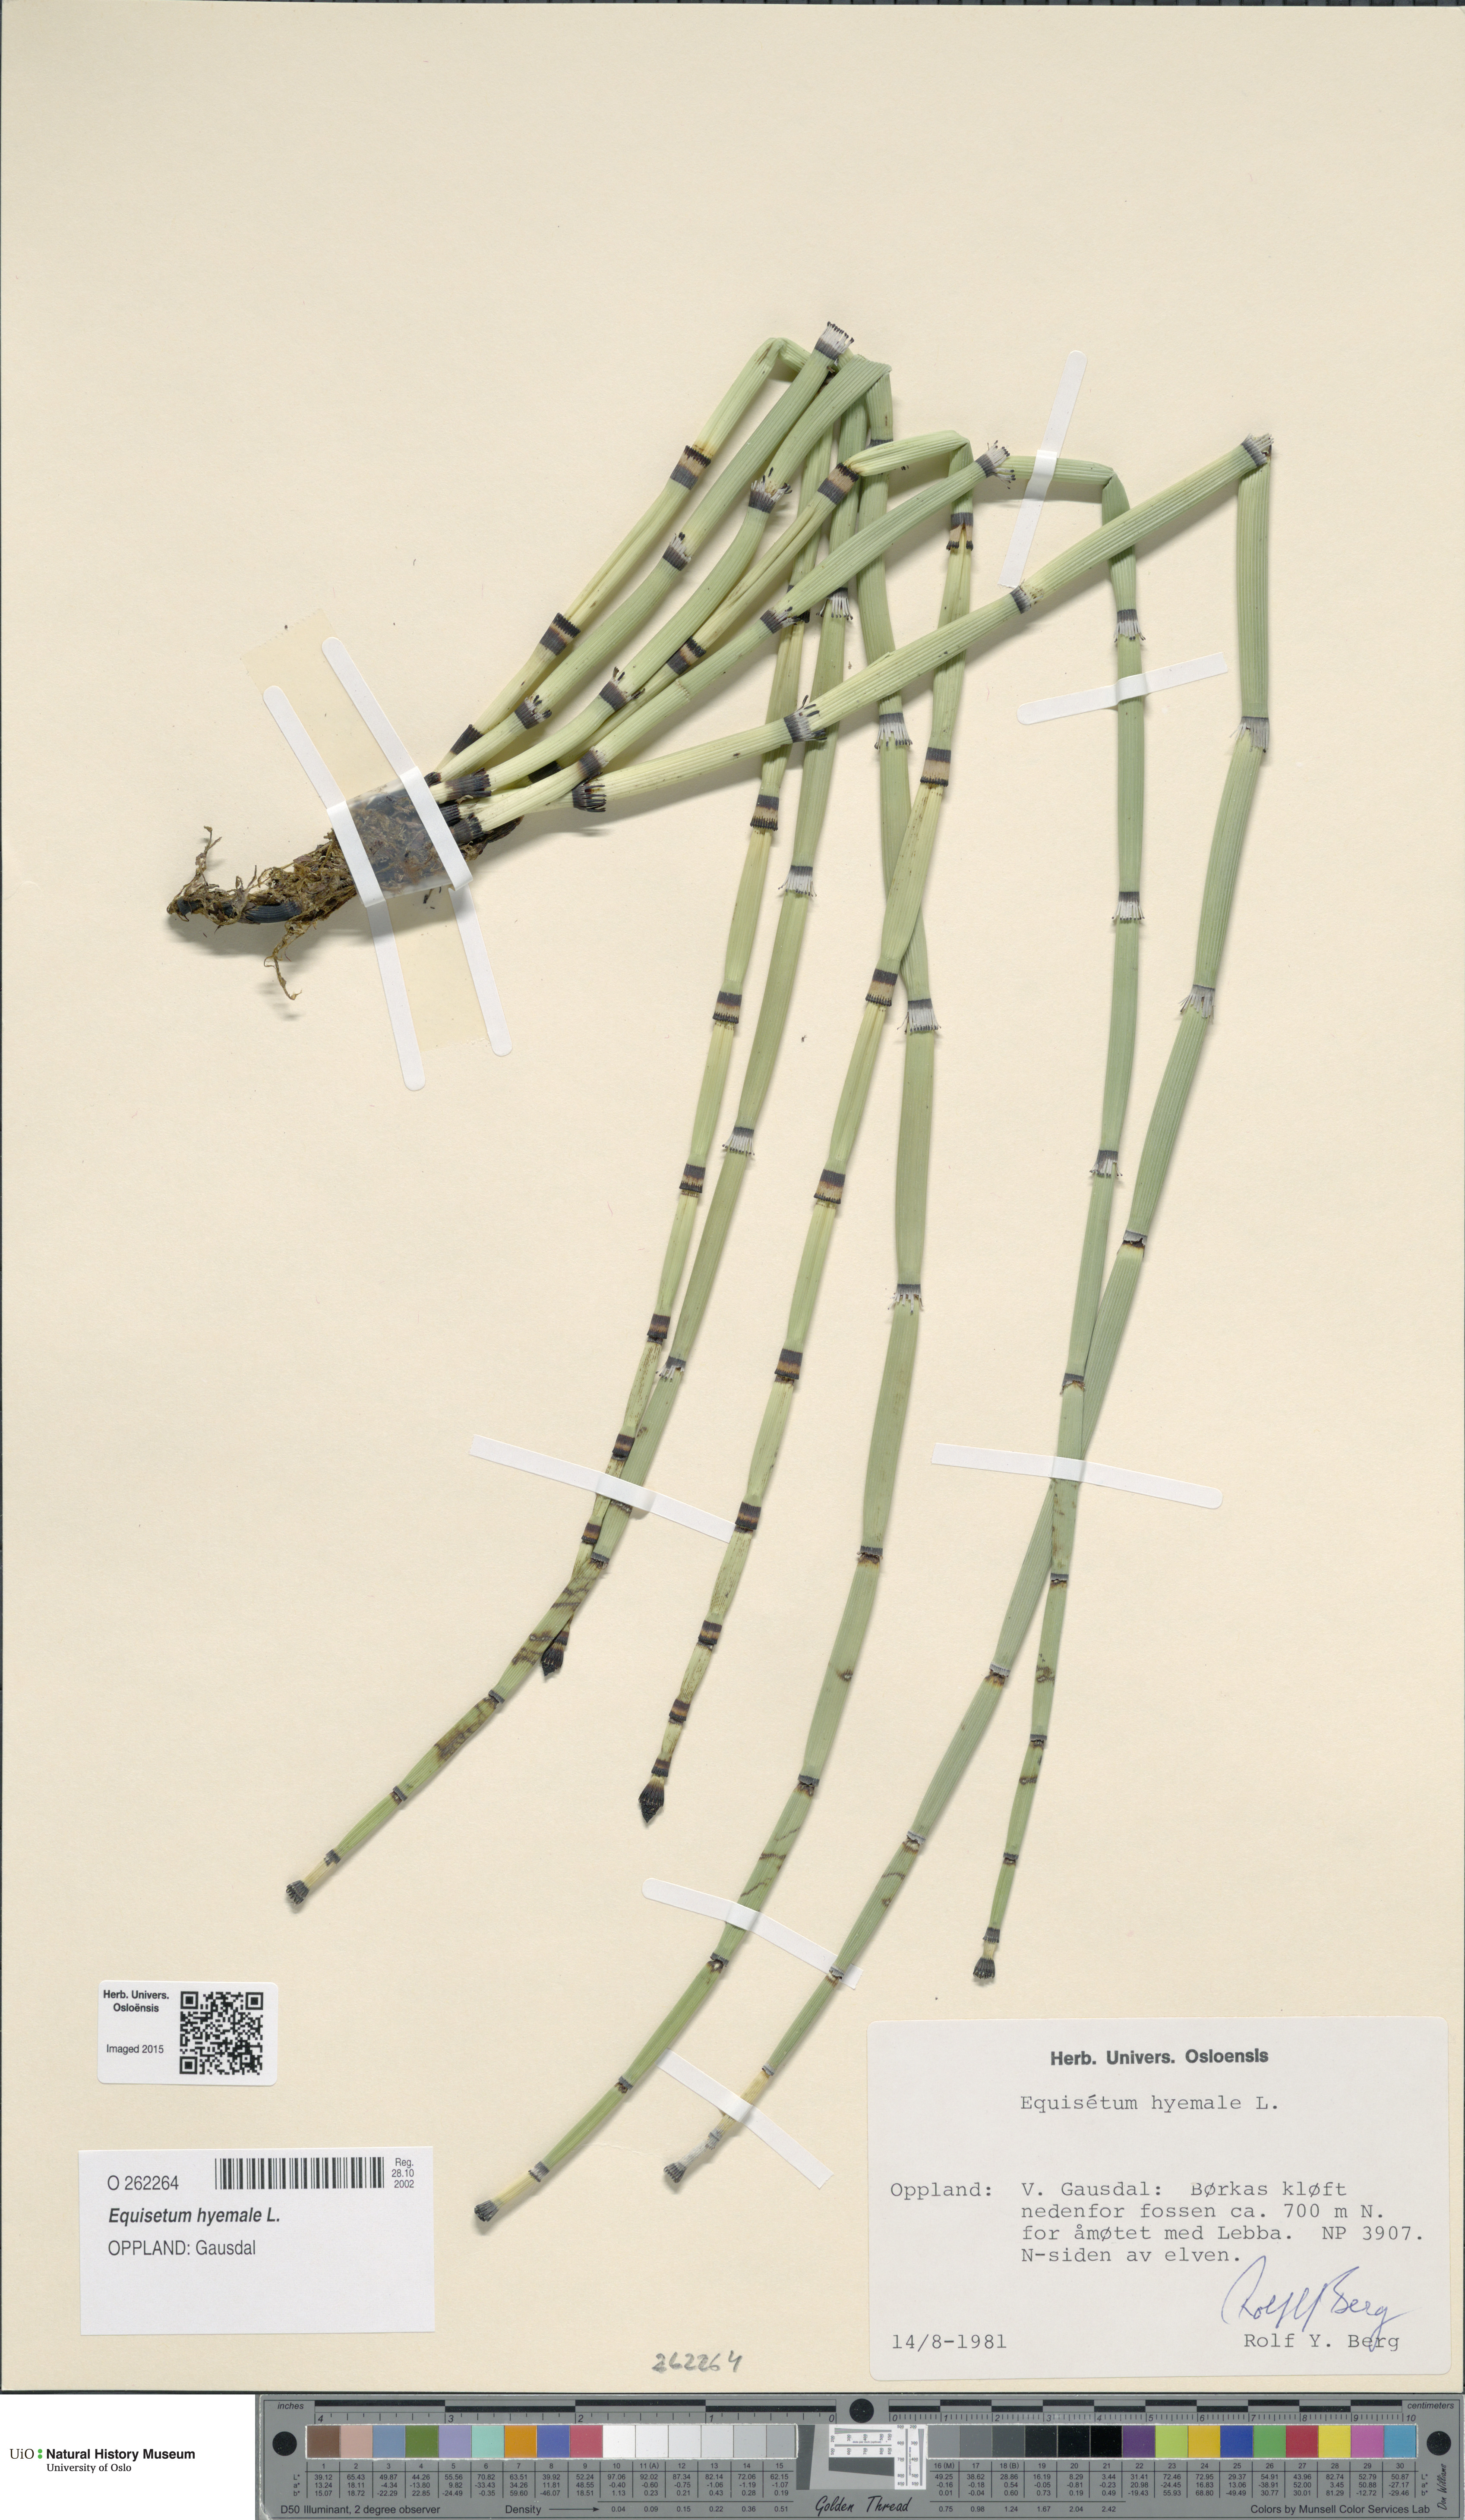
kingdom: Plantae
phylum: Tracheophyta
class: Polypodiopsida
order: Equisetales
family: Equisetaceae
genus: Equisetum
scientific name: Equisetum hyemale
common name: Rough horsetail
